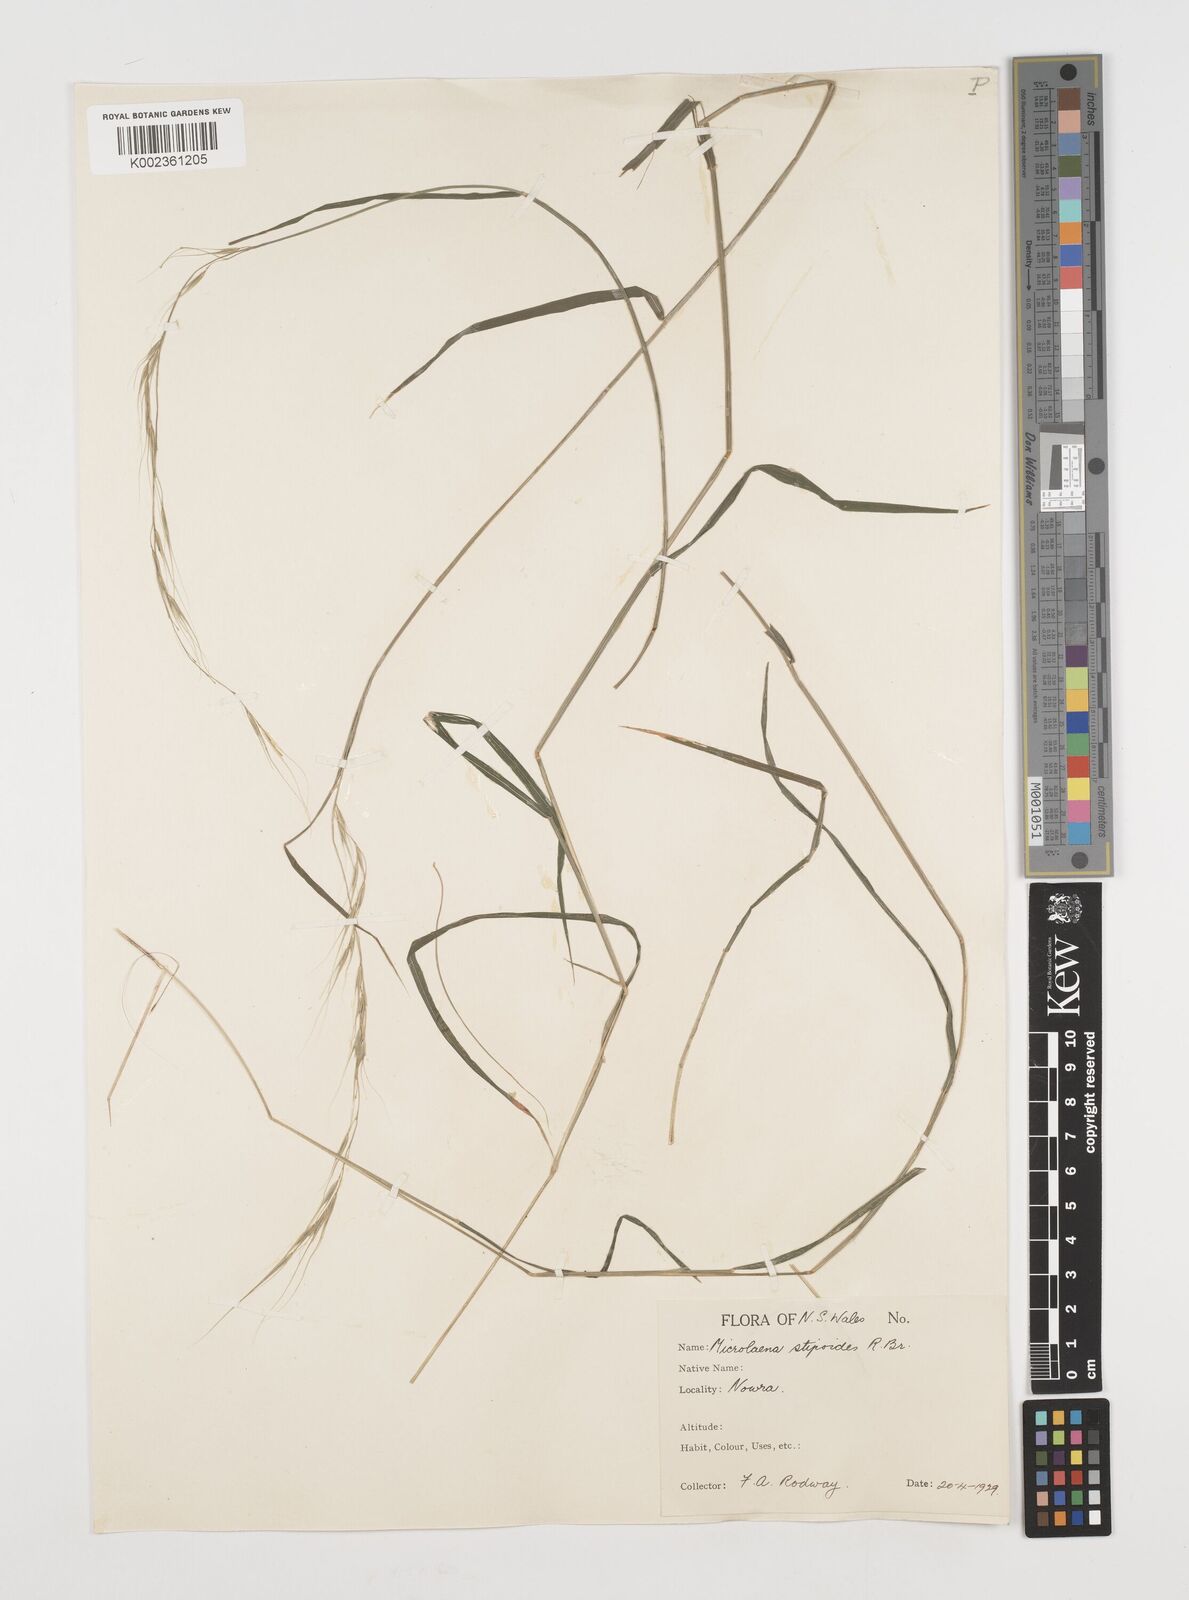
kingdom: Plantae
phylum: Tracheophyta
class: Liliopsida
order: Poales
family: Poaceae
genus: Microlaena
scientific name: Microlaena stipoides
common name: Meadow ricegrass
